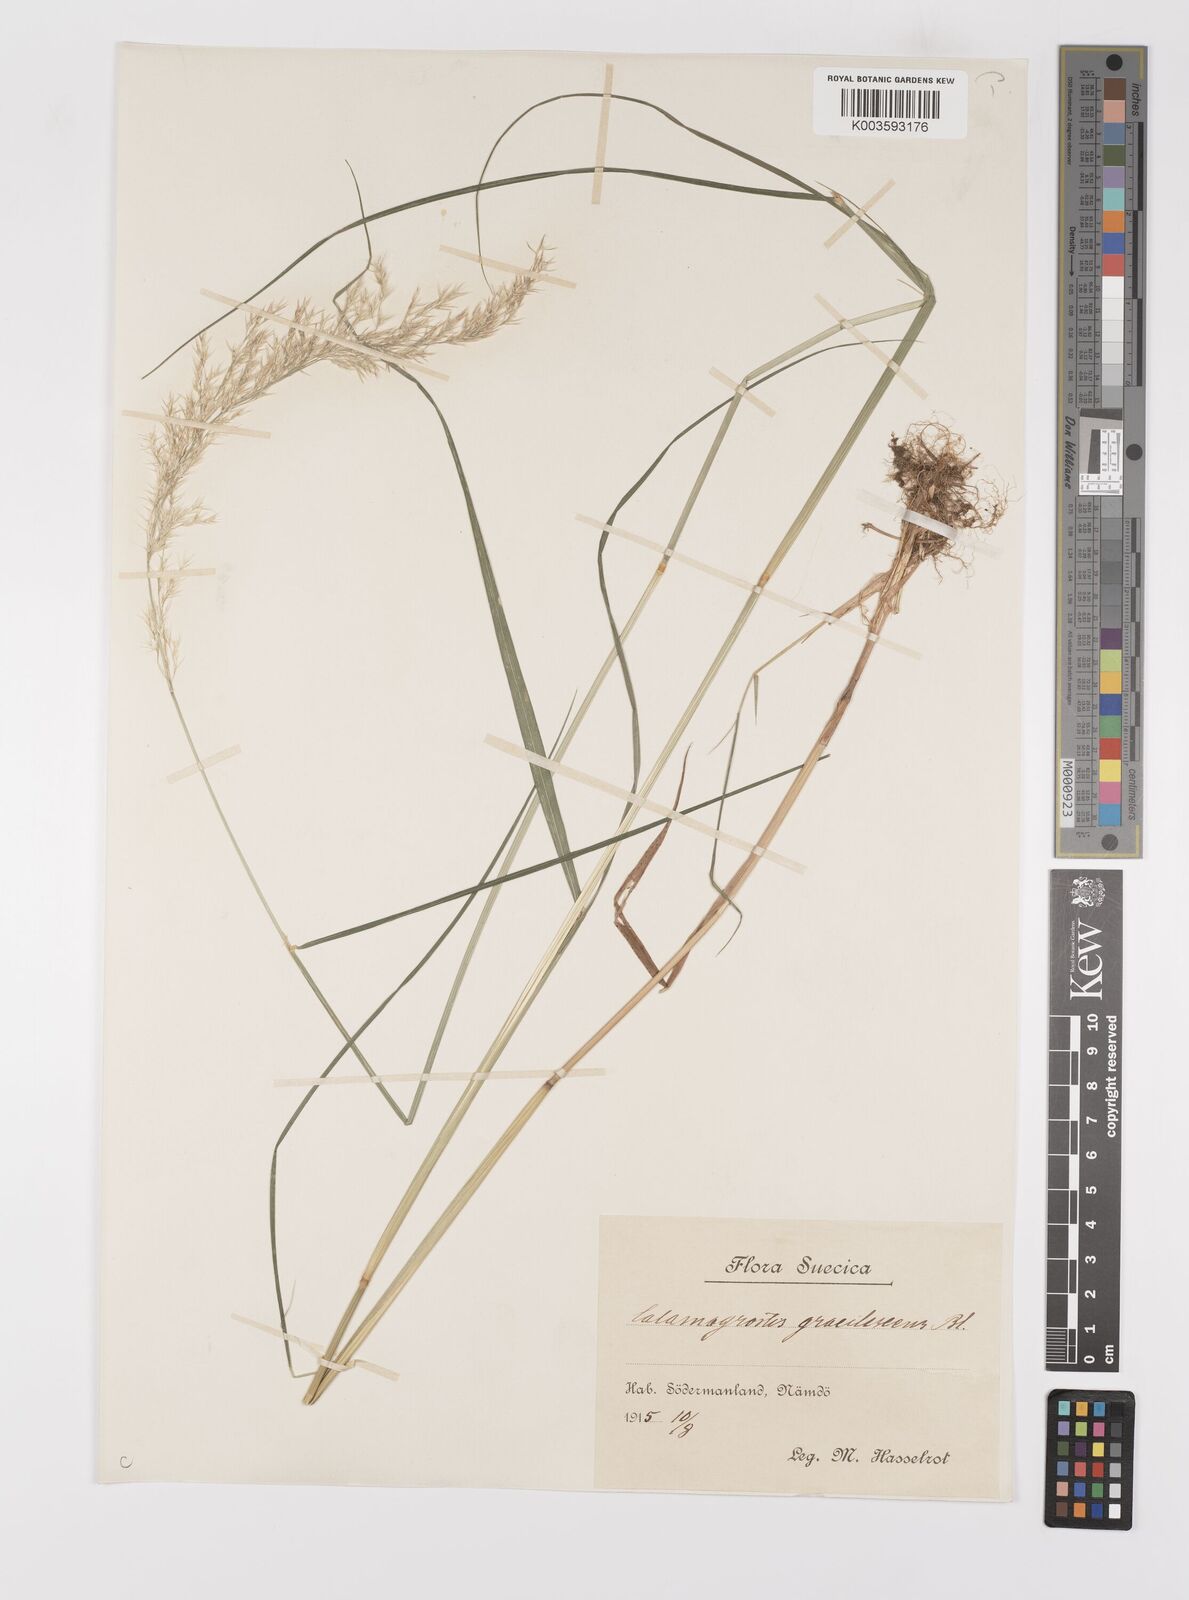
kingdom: Plantae
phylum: Tracheophyta
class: Liliopsida
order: Poales
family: Poaceae
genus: Calamagrostis
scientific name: Calamagrostis
